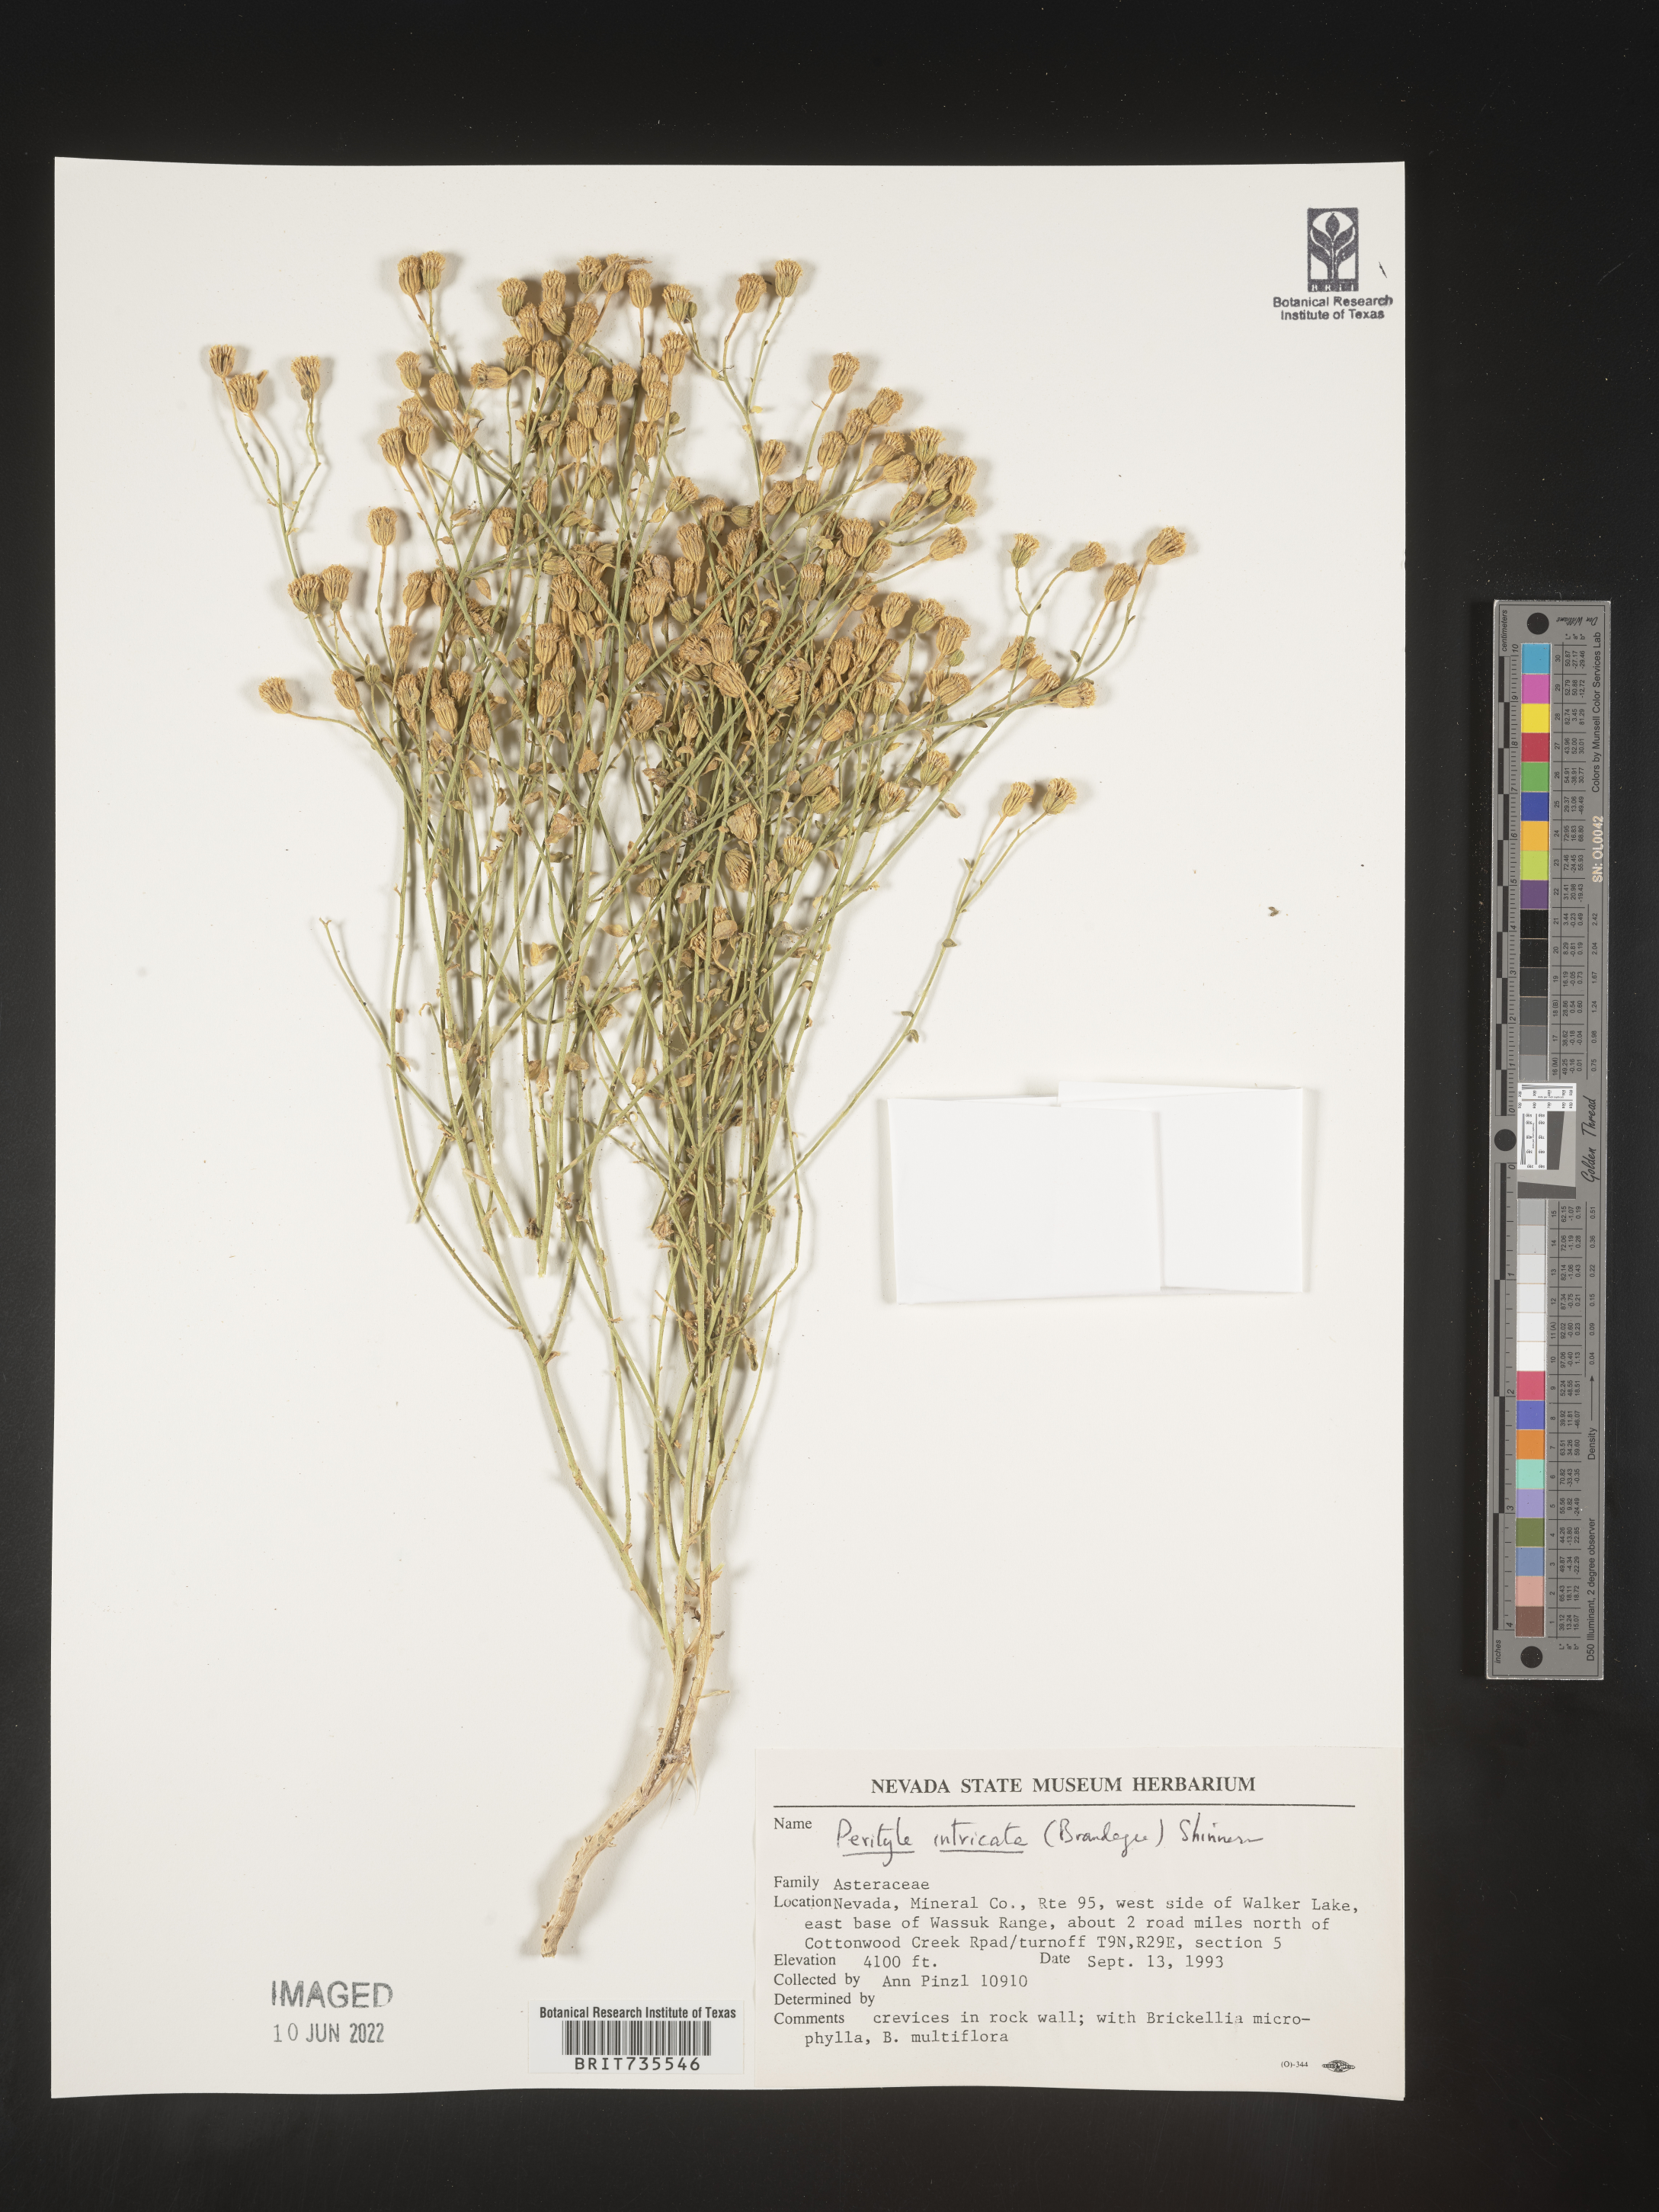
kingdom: Plantae
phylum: Tracheophyta
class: Magnoliopsida
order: Asterales
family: Asteraceae
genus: Perityle
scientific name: Perityle
